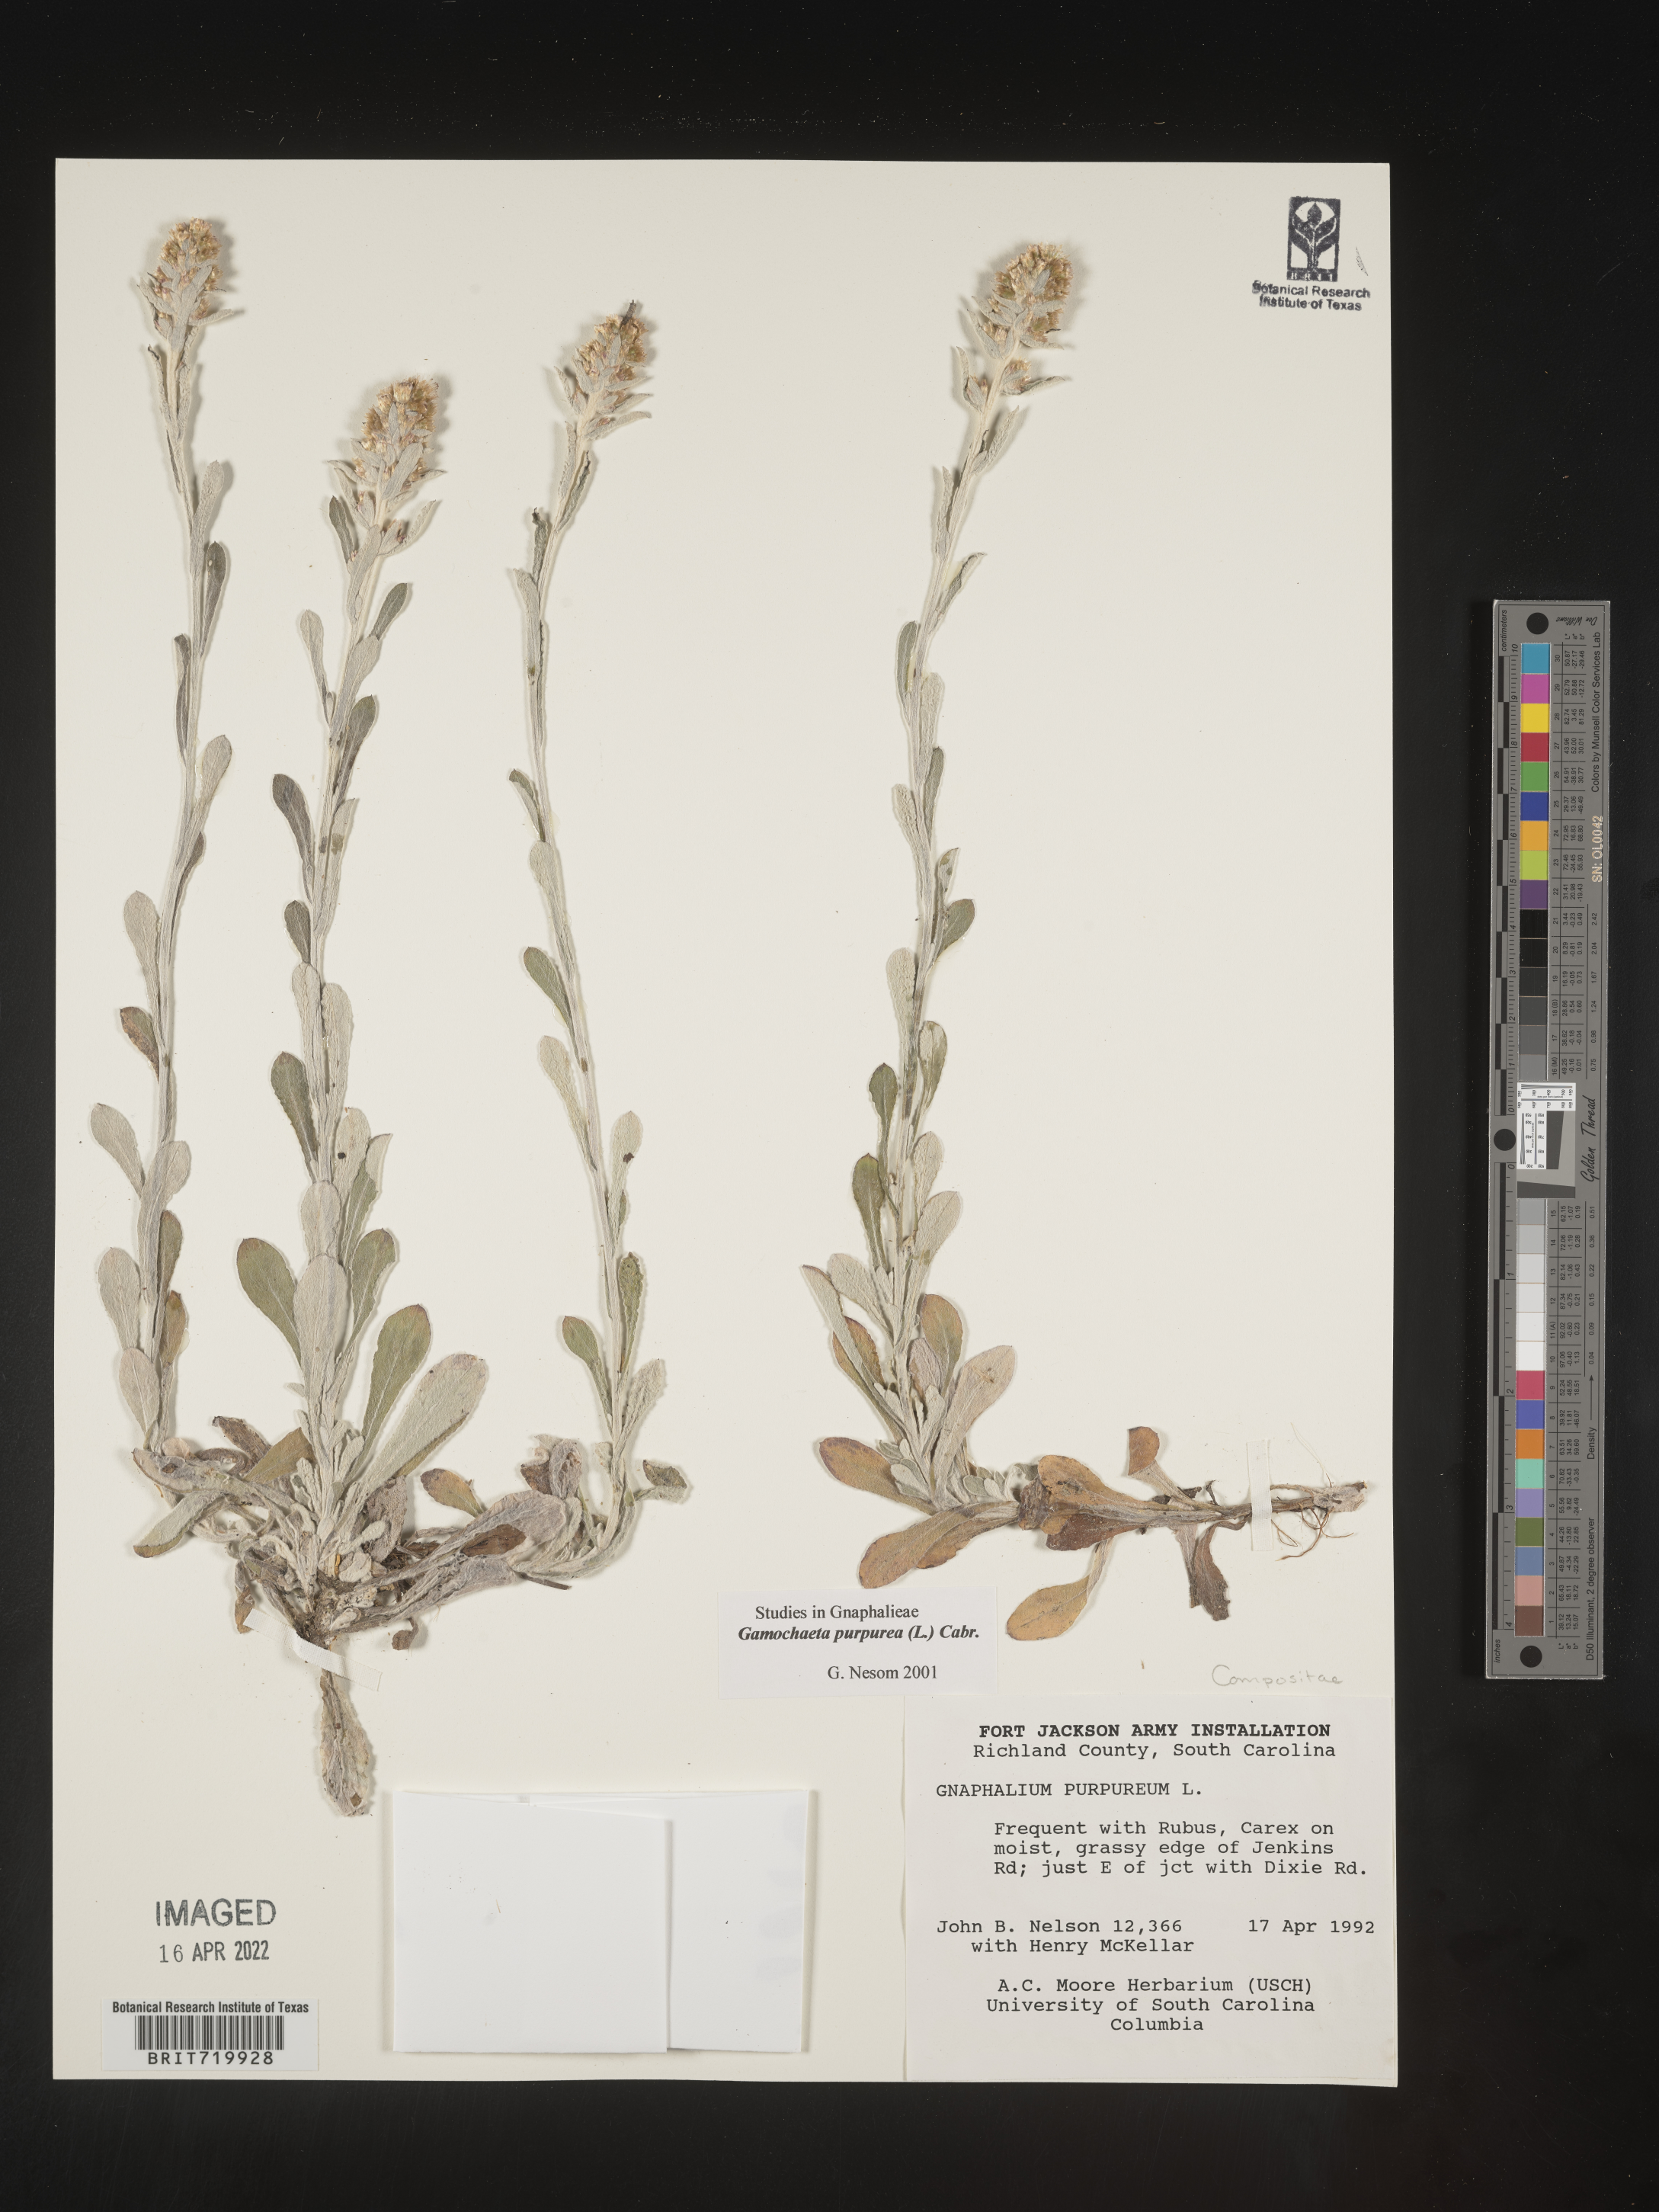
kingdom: Plantae
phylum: Tracheophyta
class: Magnoliopsida
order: Asterales
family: Asteraceae
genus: Gamochaeta
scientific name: Gamochaeta purpurea
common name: Purple cudweed
